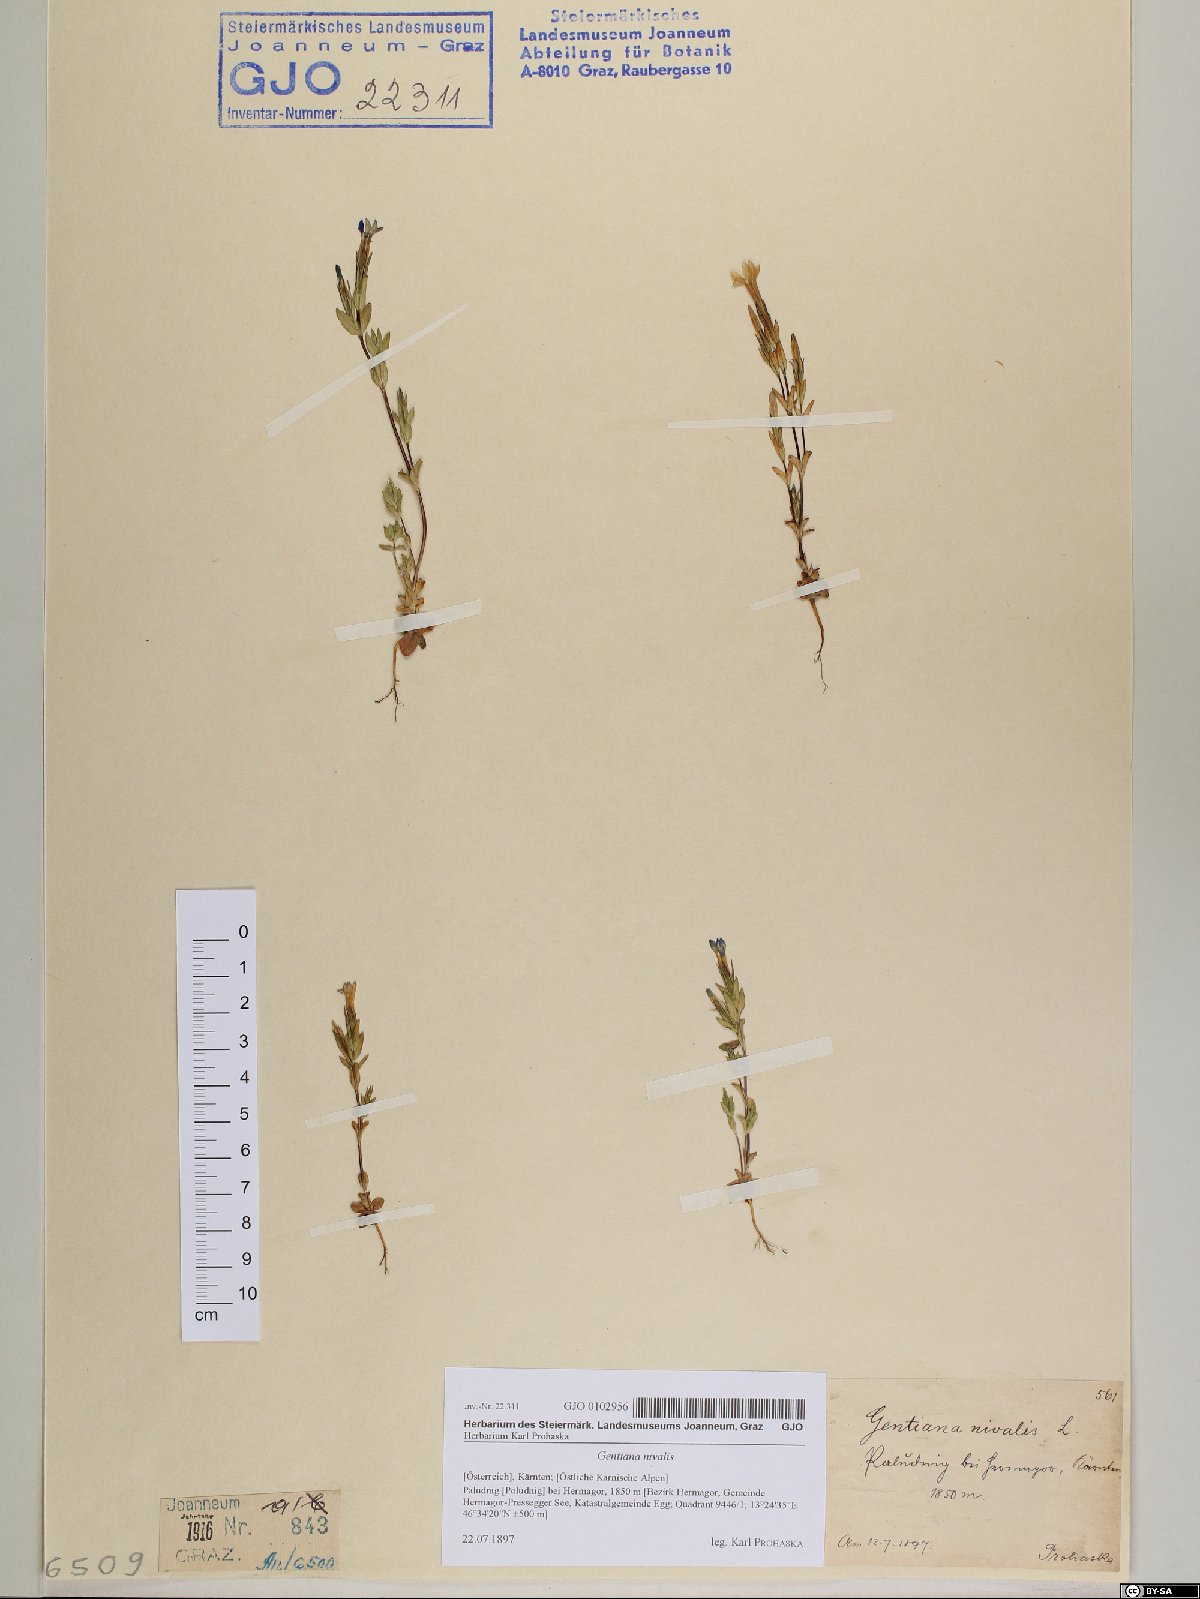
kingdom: Plantae
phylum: Tracheophyta
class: Magnoliopsida
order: Gentianales
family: Gentianaceae
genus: Gentiana
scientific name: Gentiana nivalis
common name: Alpine gentian
